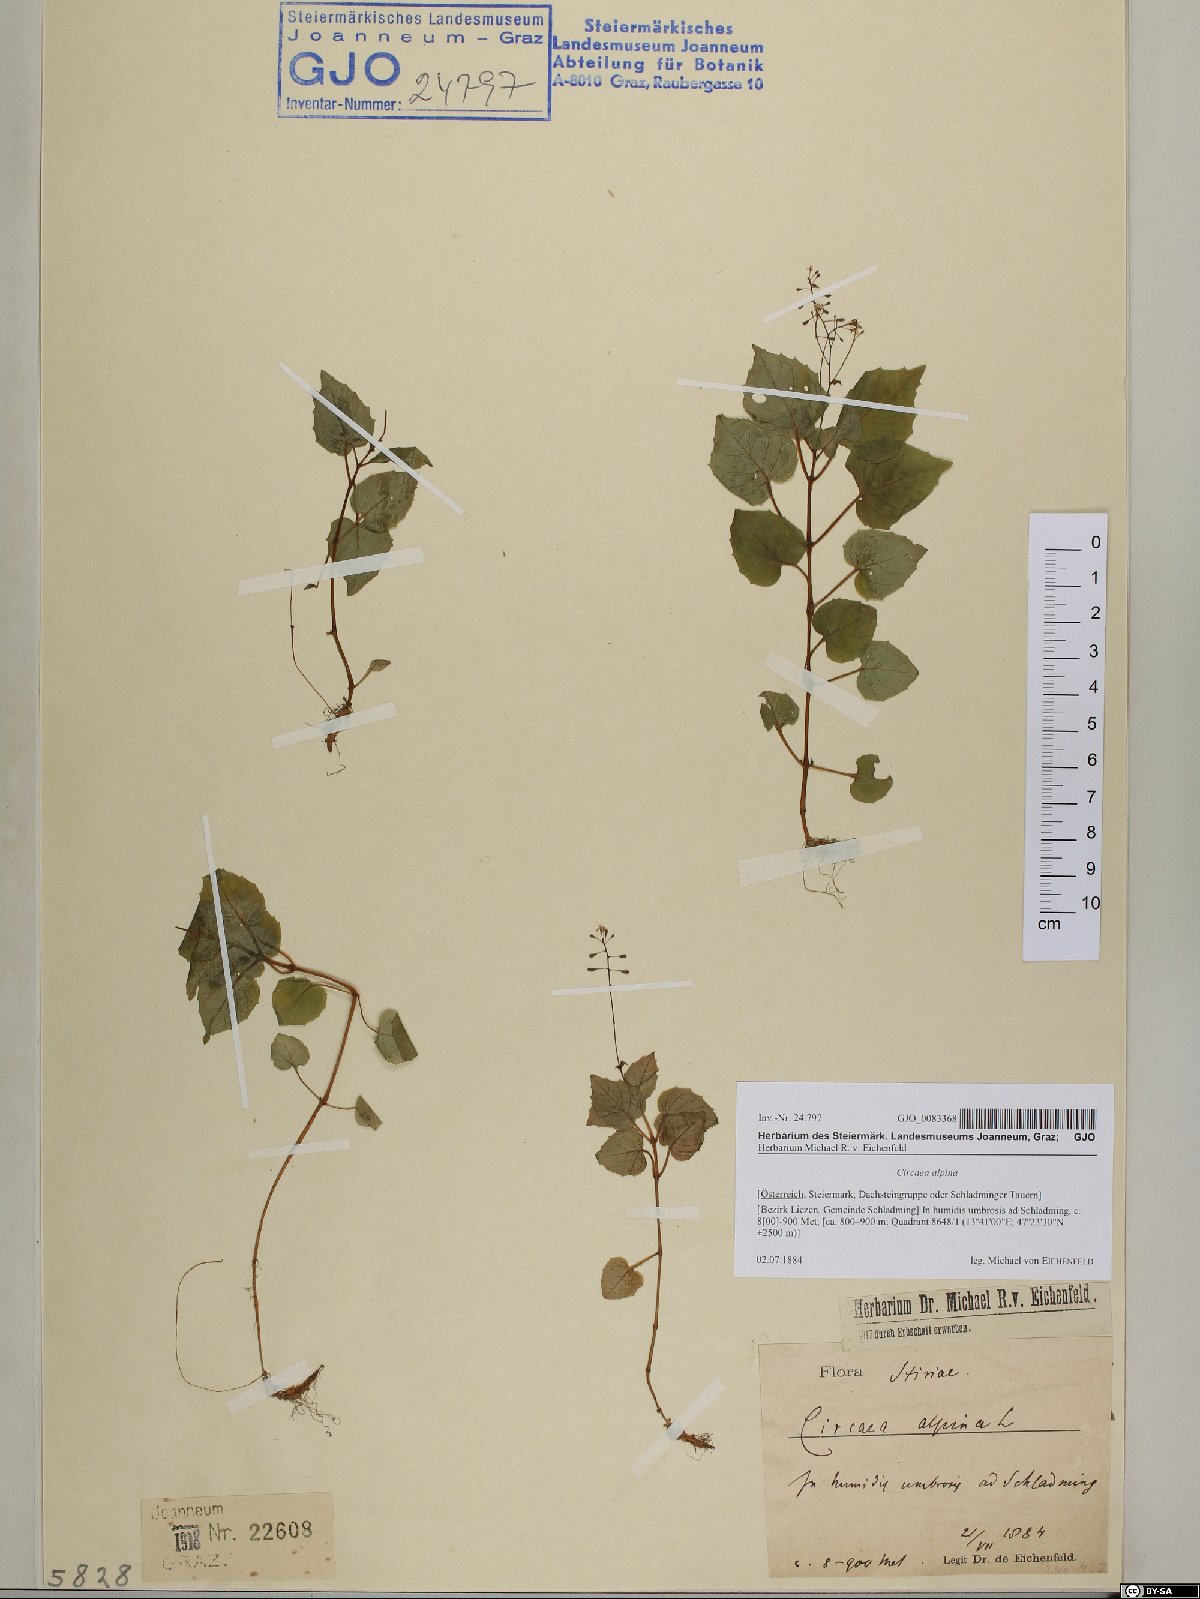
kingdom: Plantae
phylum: Tracheophyta
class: Magnoliopsida
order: Myrtales
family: Onagraceae
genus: Circaea
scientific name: Circaea alpina
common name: Alpine enchanter's-nightshade
